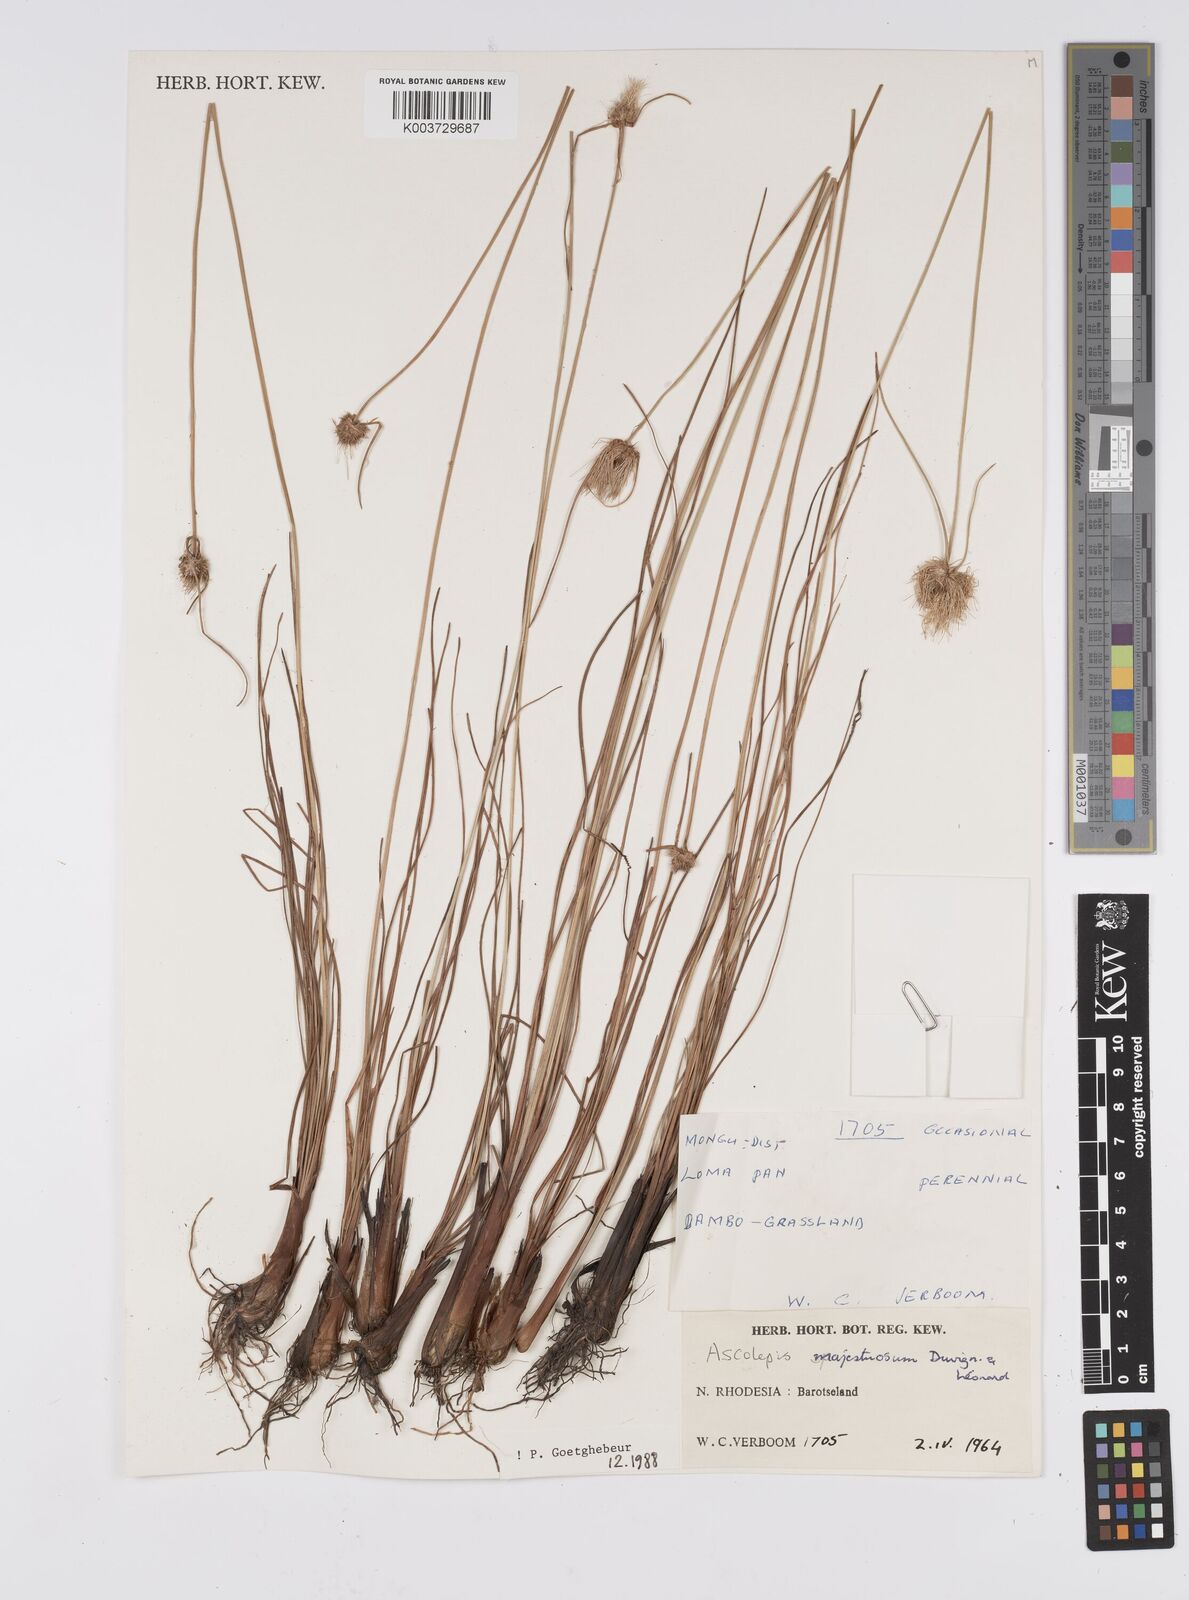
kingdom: Plantae
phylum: Tracheophyta
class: Liliopsida
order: Poales
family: Cyperaceae
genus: Cyperus
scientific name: Cyperus majestuosus
